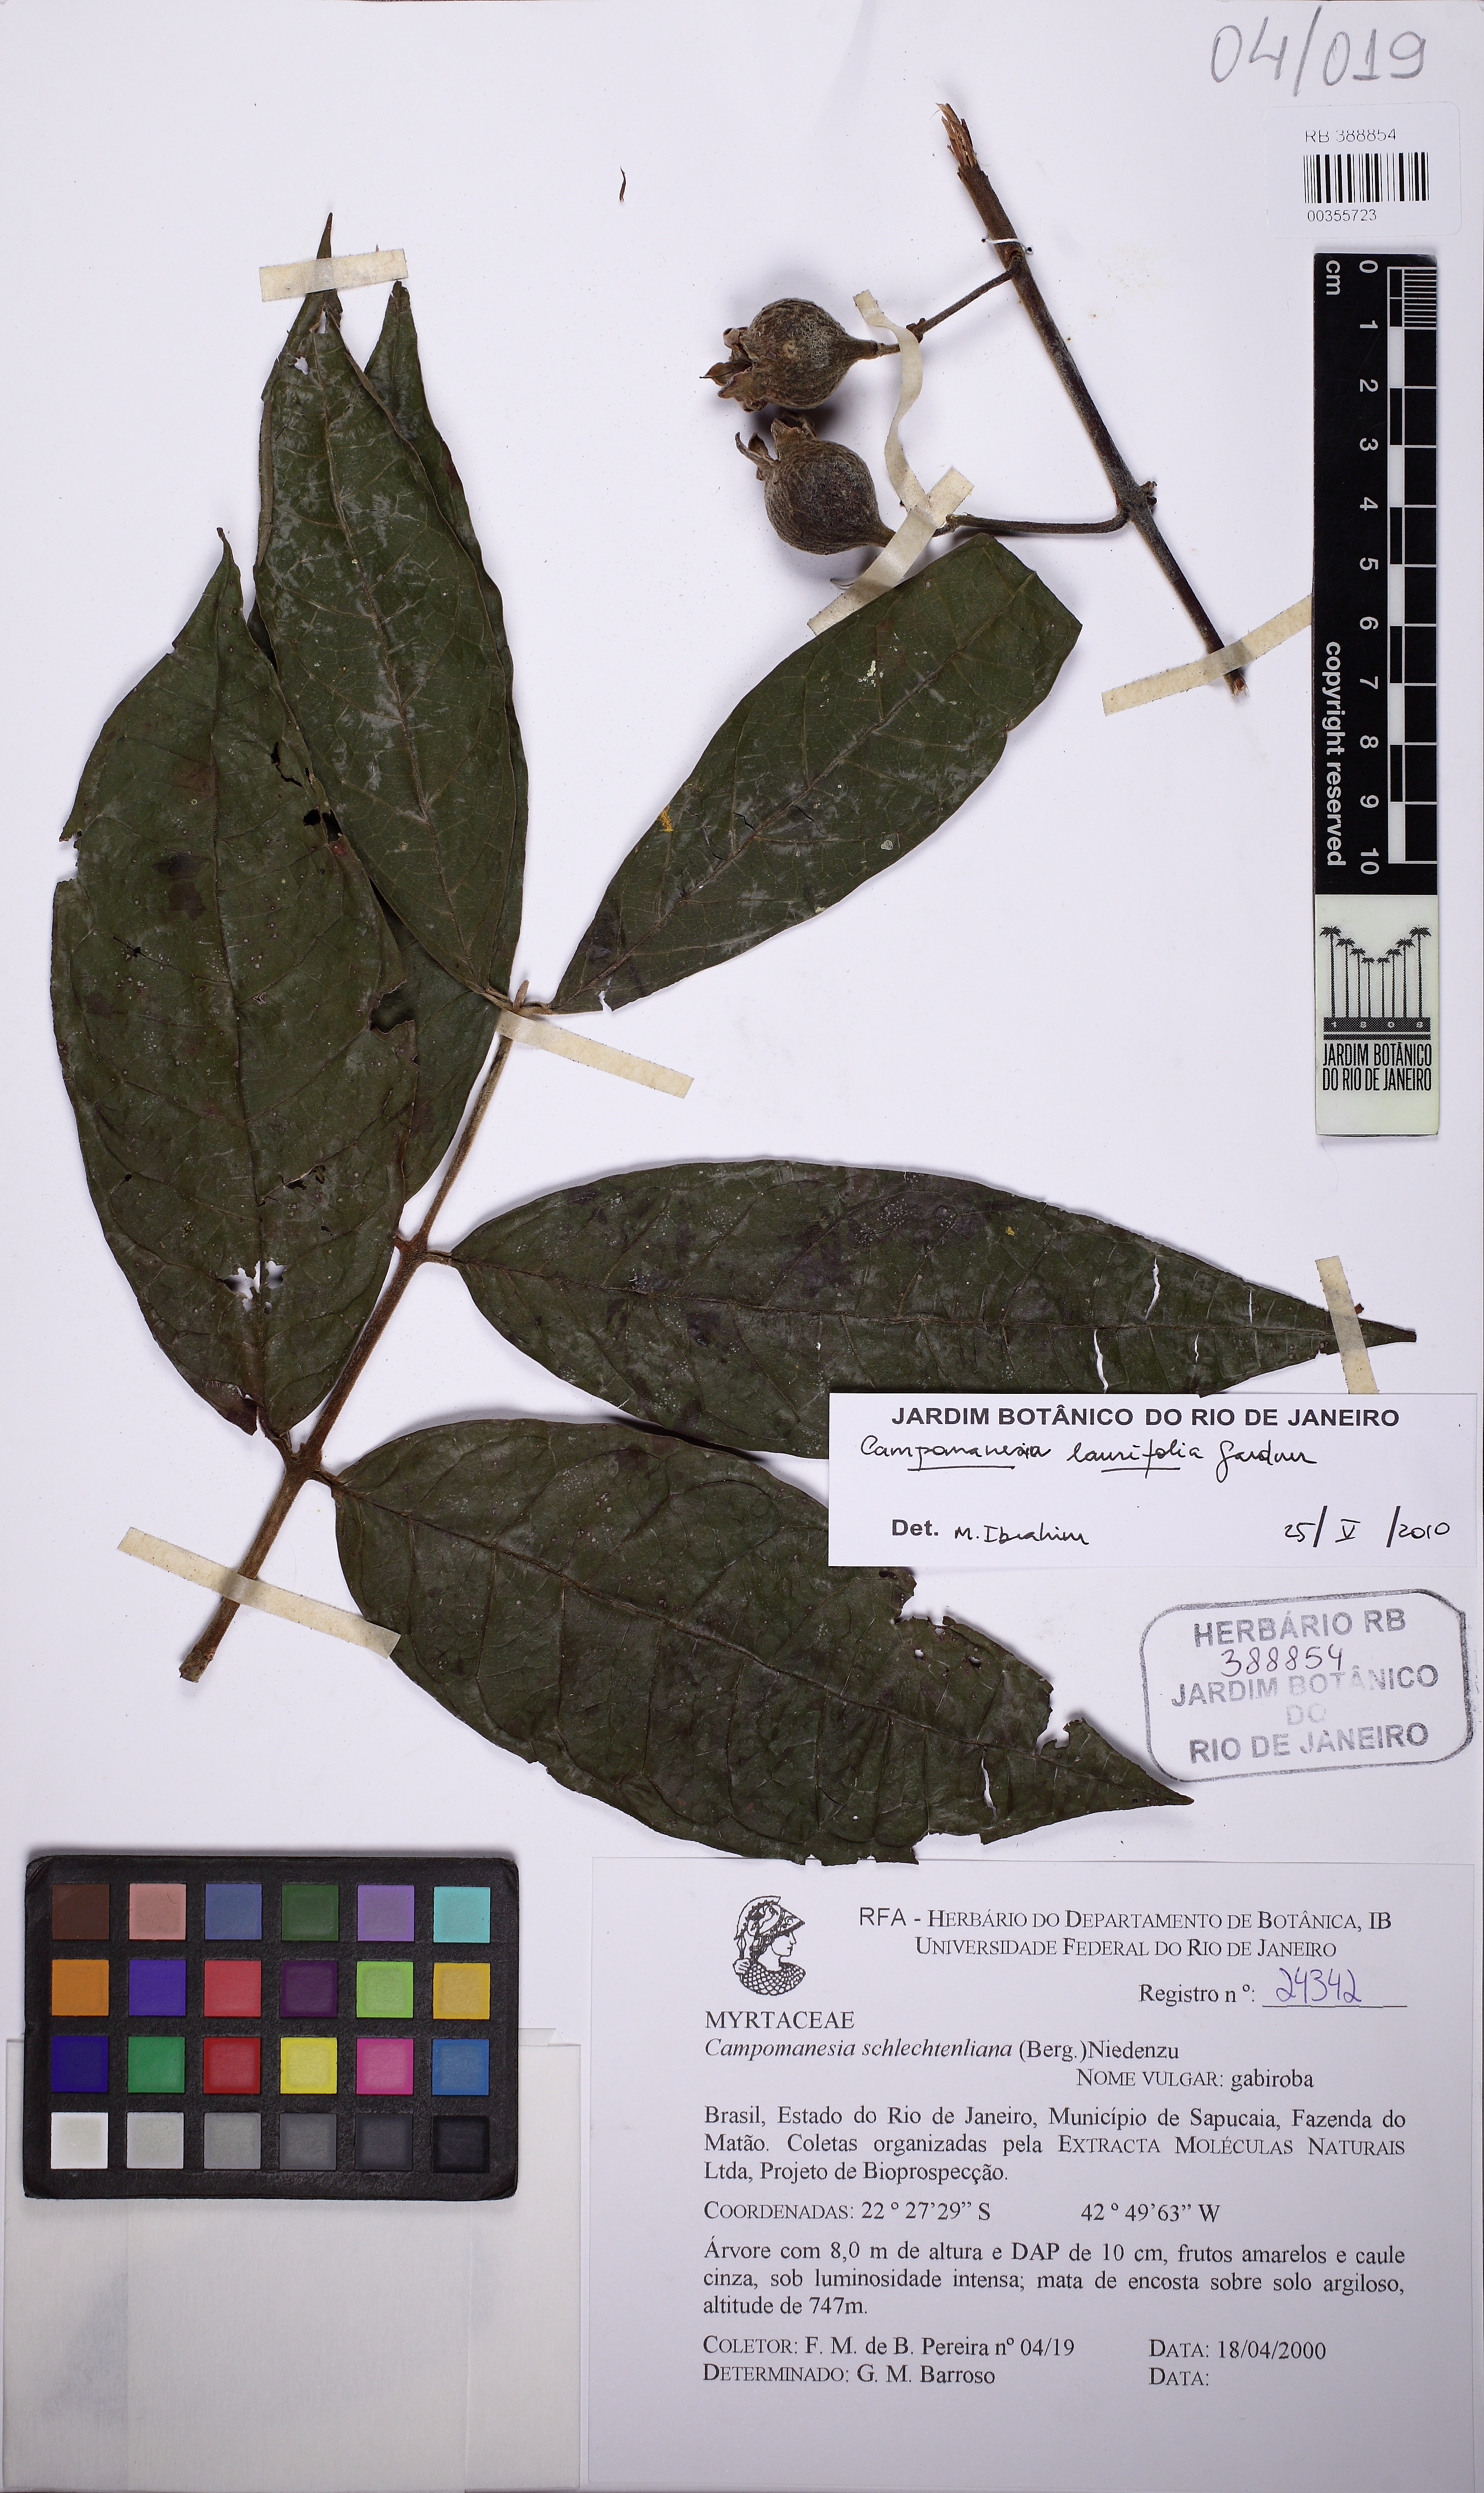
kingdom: Plantae
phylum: Tracheophyta
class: Magnoliopsida
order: Myrtales
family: Myrtaceae
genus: Campomanesia
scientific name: Campomanesia laurifolia
